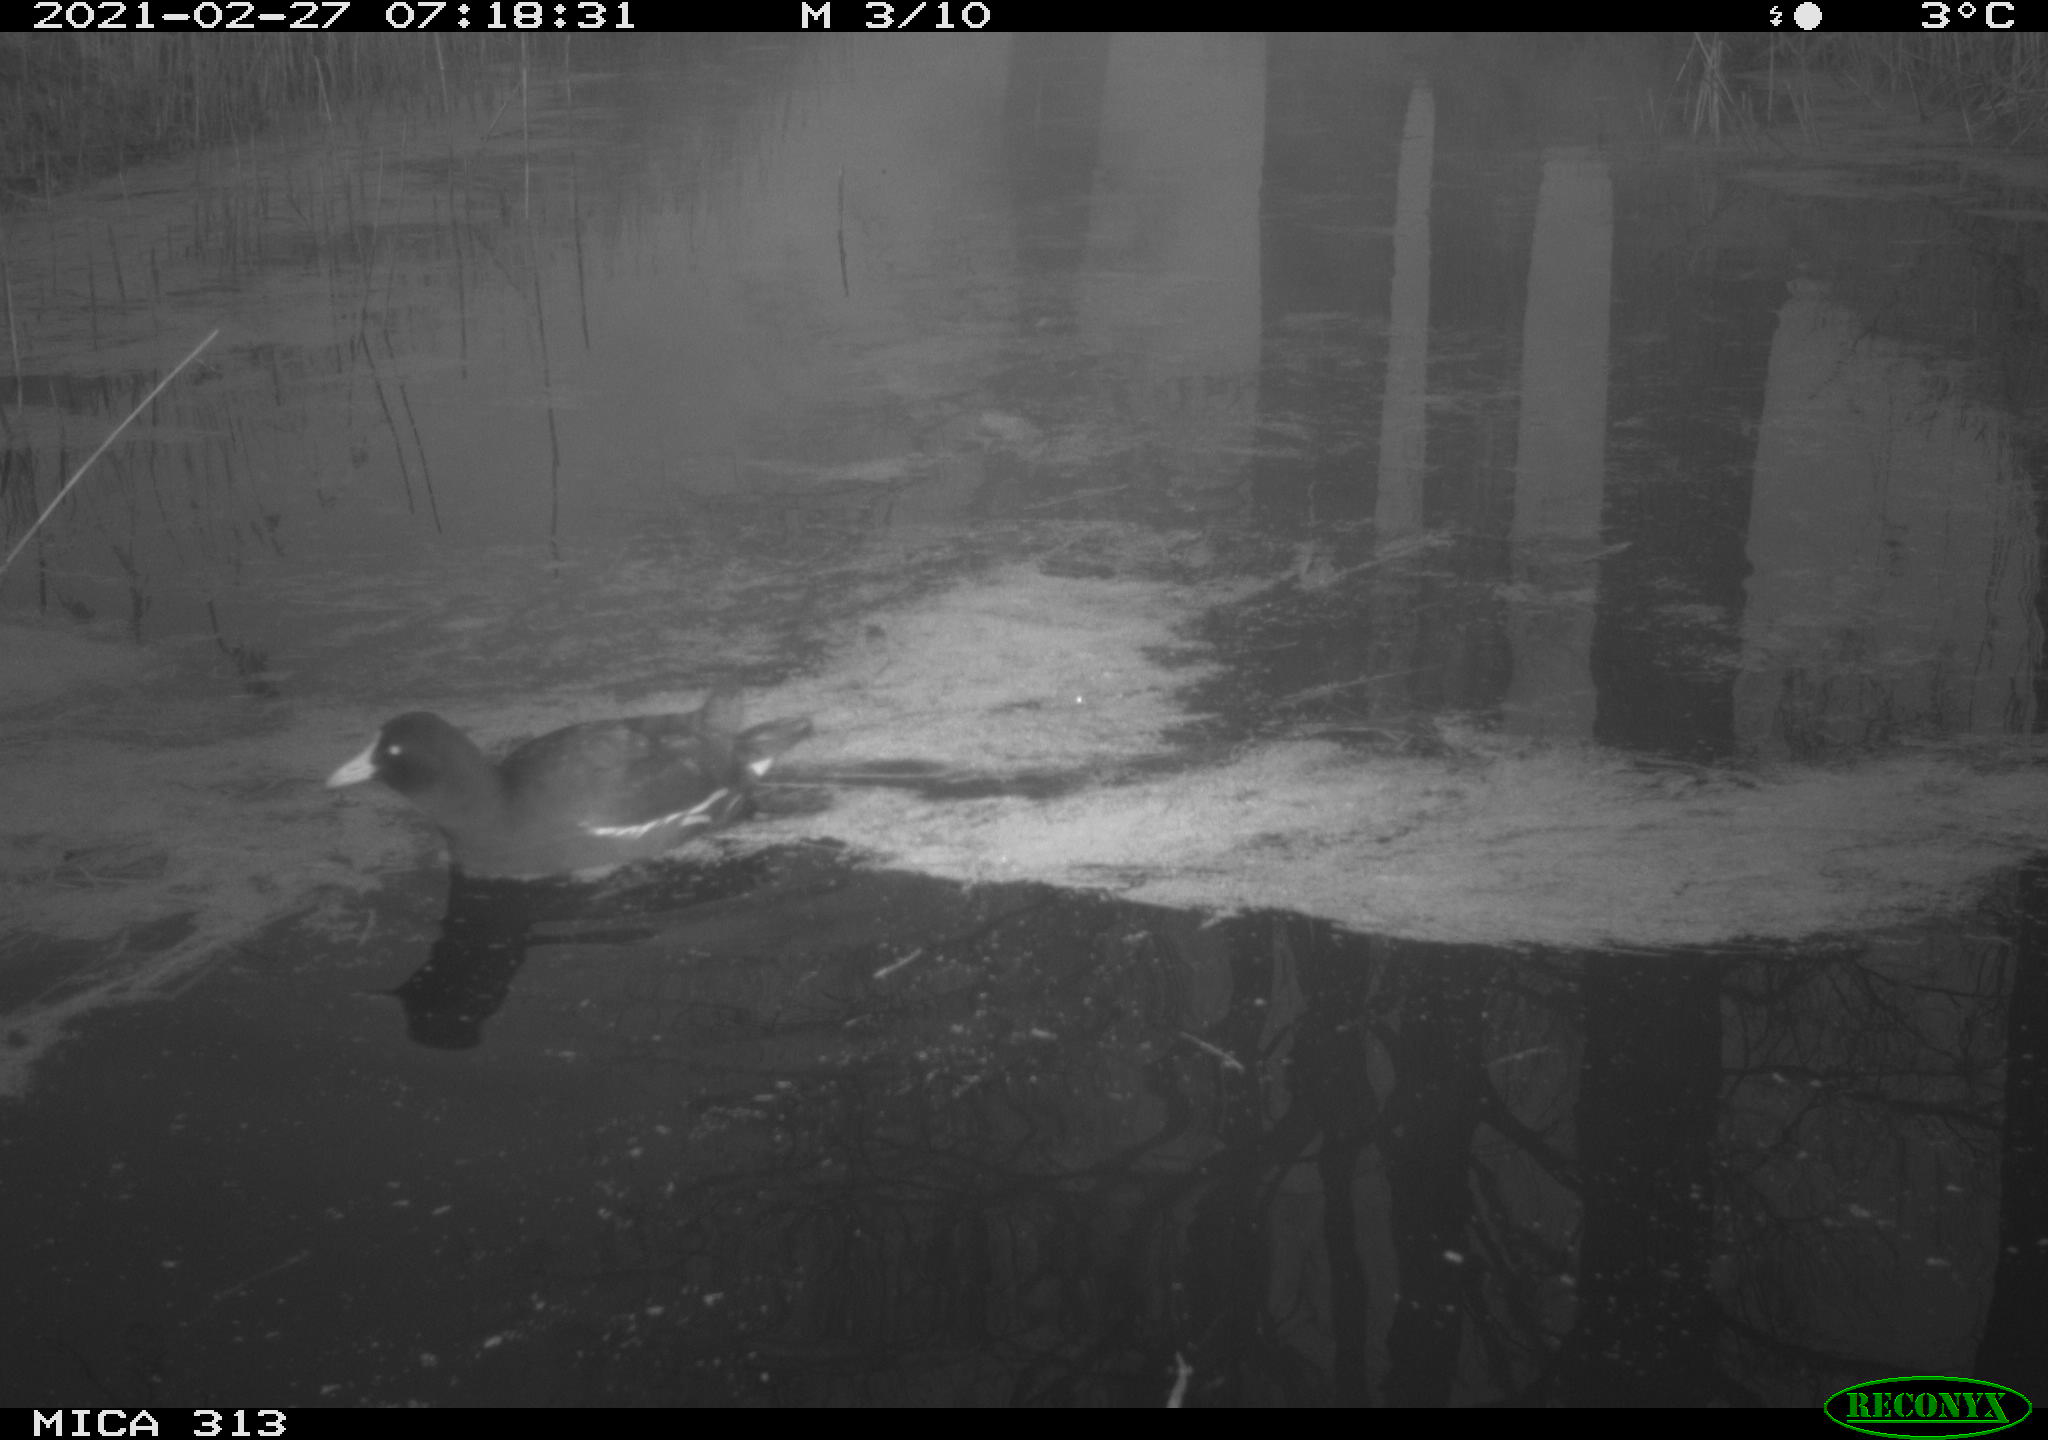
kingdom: Animalia
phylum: Chordata
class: Aves
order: Gruiformes
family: Rallidae
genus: Gallinula
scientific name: Gallinula chloropus
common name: Common moorhen
